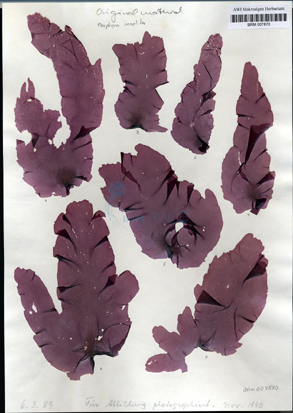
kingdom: Plantae
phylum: Rhodophyta
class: Bangiophyceae
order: Bangiales
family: Bangiaceae
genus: Porphyra
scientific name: Porphyra umbilicalis
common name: Purple laver
